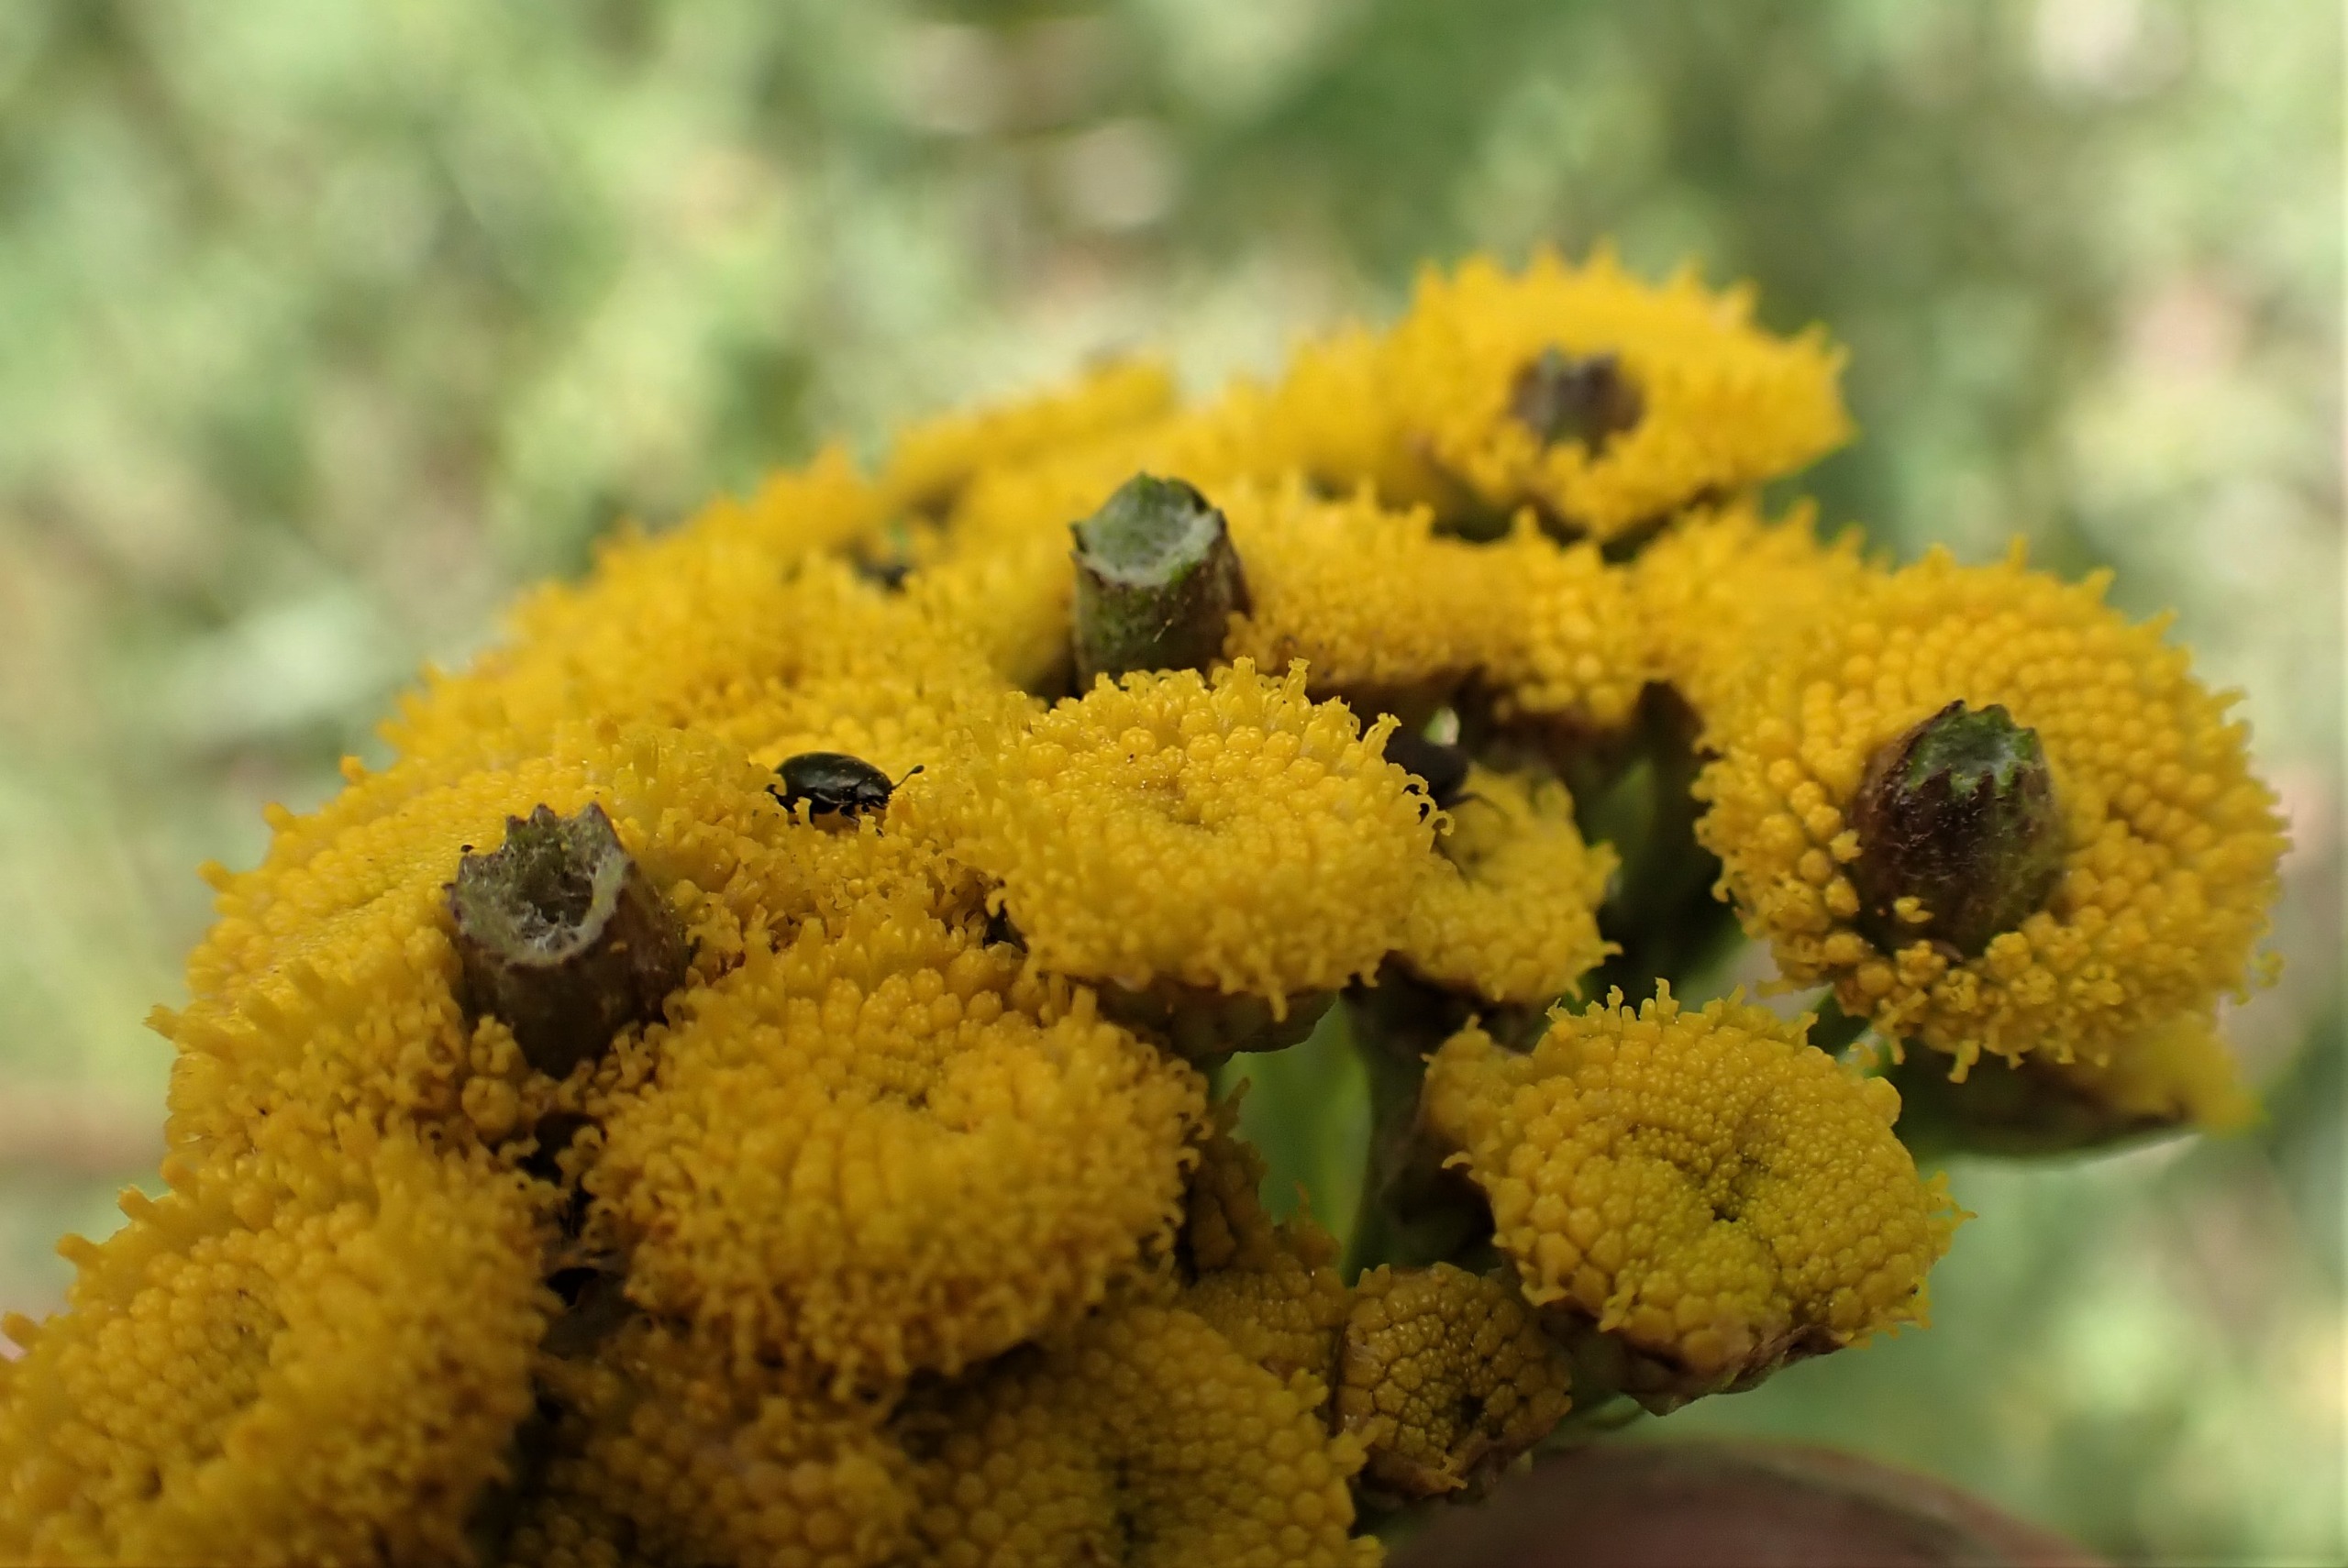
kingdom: Animalia
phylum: Arthropoda
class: Insecta
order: Diptera
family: Cecidomyiidae
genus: Rhopalomyia
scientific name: Rhopalomyia tanaceticolus
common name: Rejnfangalmyg
